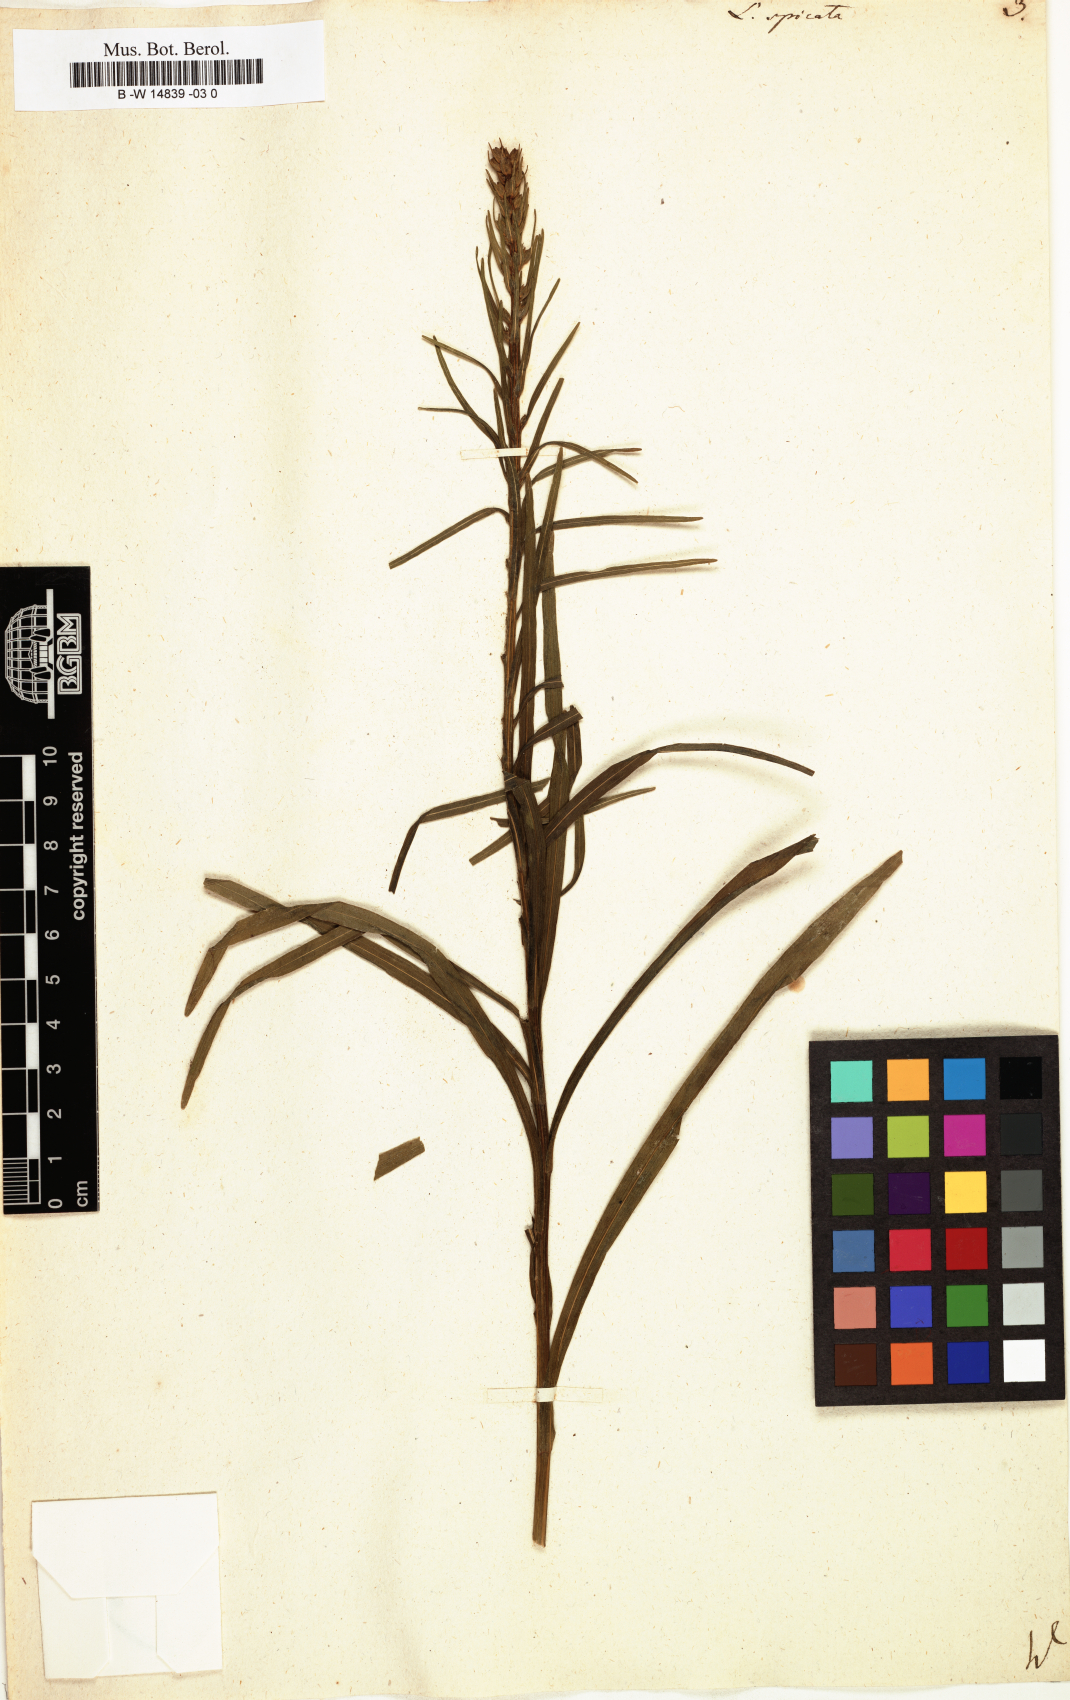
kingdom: Plantae
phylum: Tracheophyta
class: Magnoliopsida
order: Asterales
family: Asteraceae
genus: Liatris
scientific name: Liatris spicata
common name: Florist gayfeather
